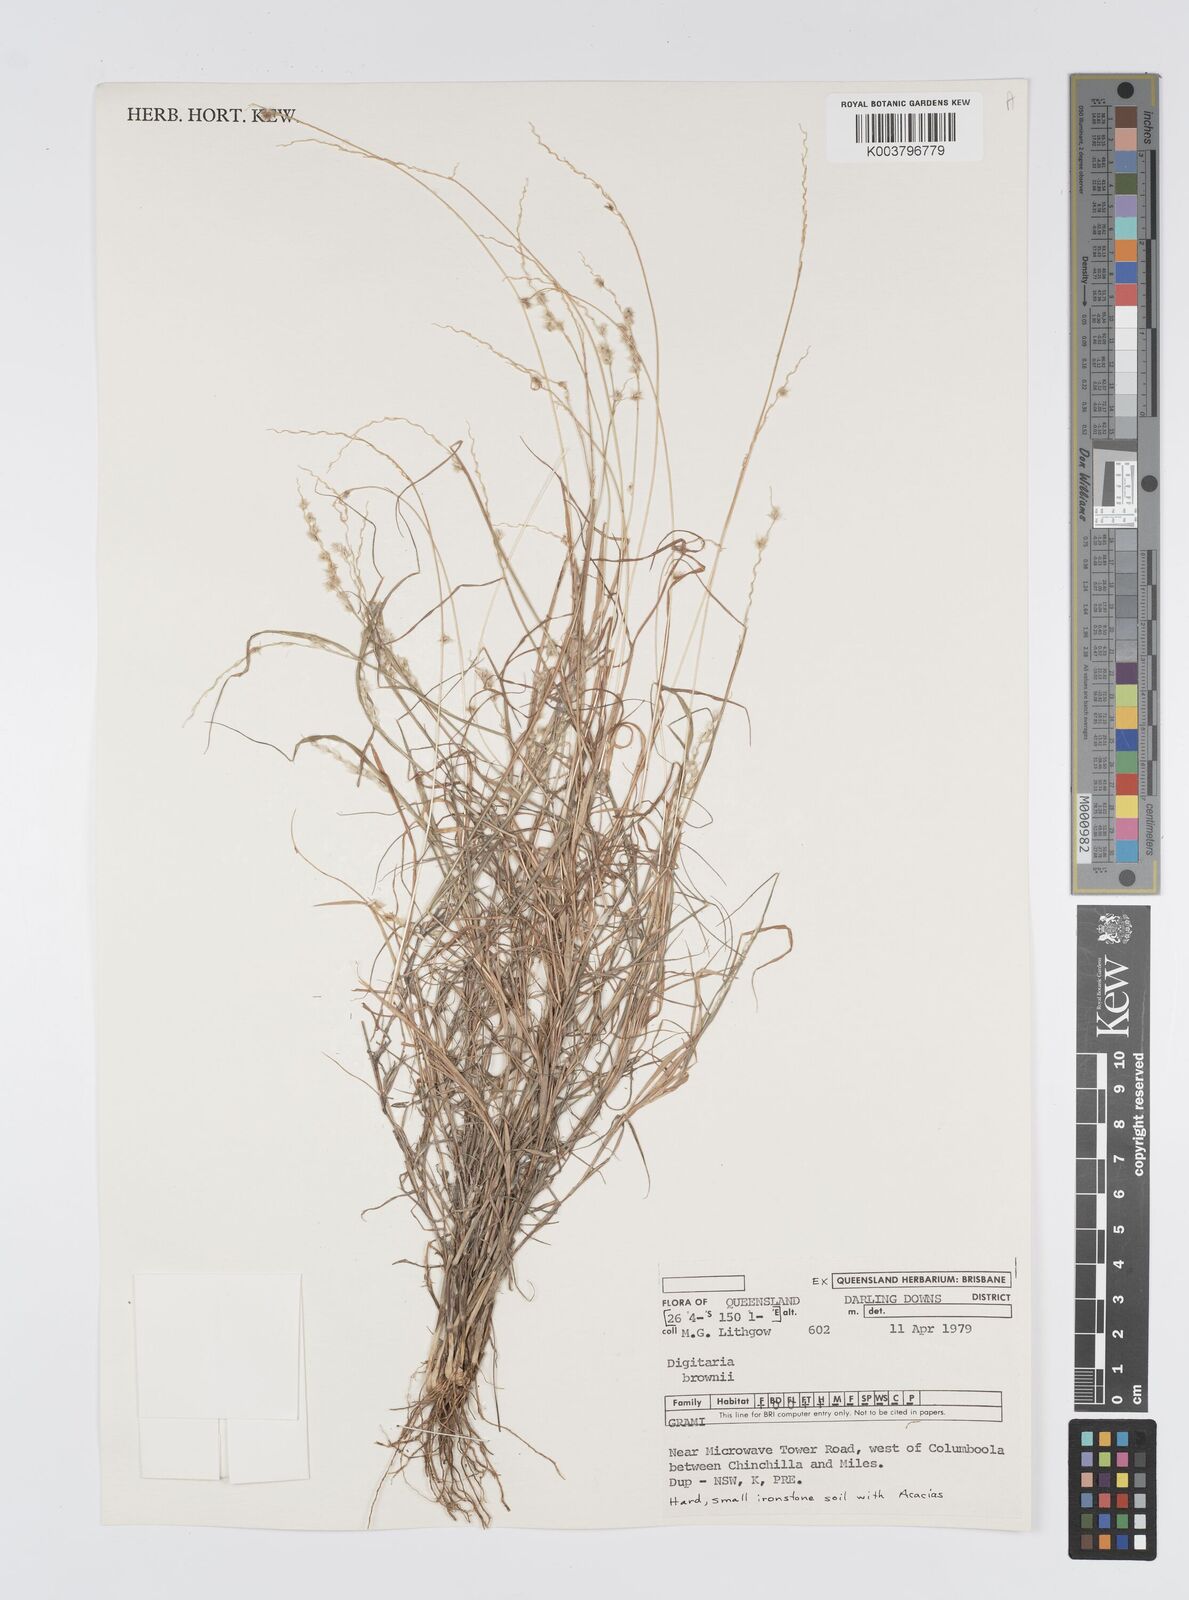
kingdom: Plantae
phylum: Tracheophyta
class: Liliopsida
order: Poales
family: Poaceae
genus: Digitaria
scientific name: Digitaria brownii
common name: Cotton grass
